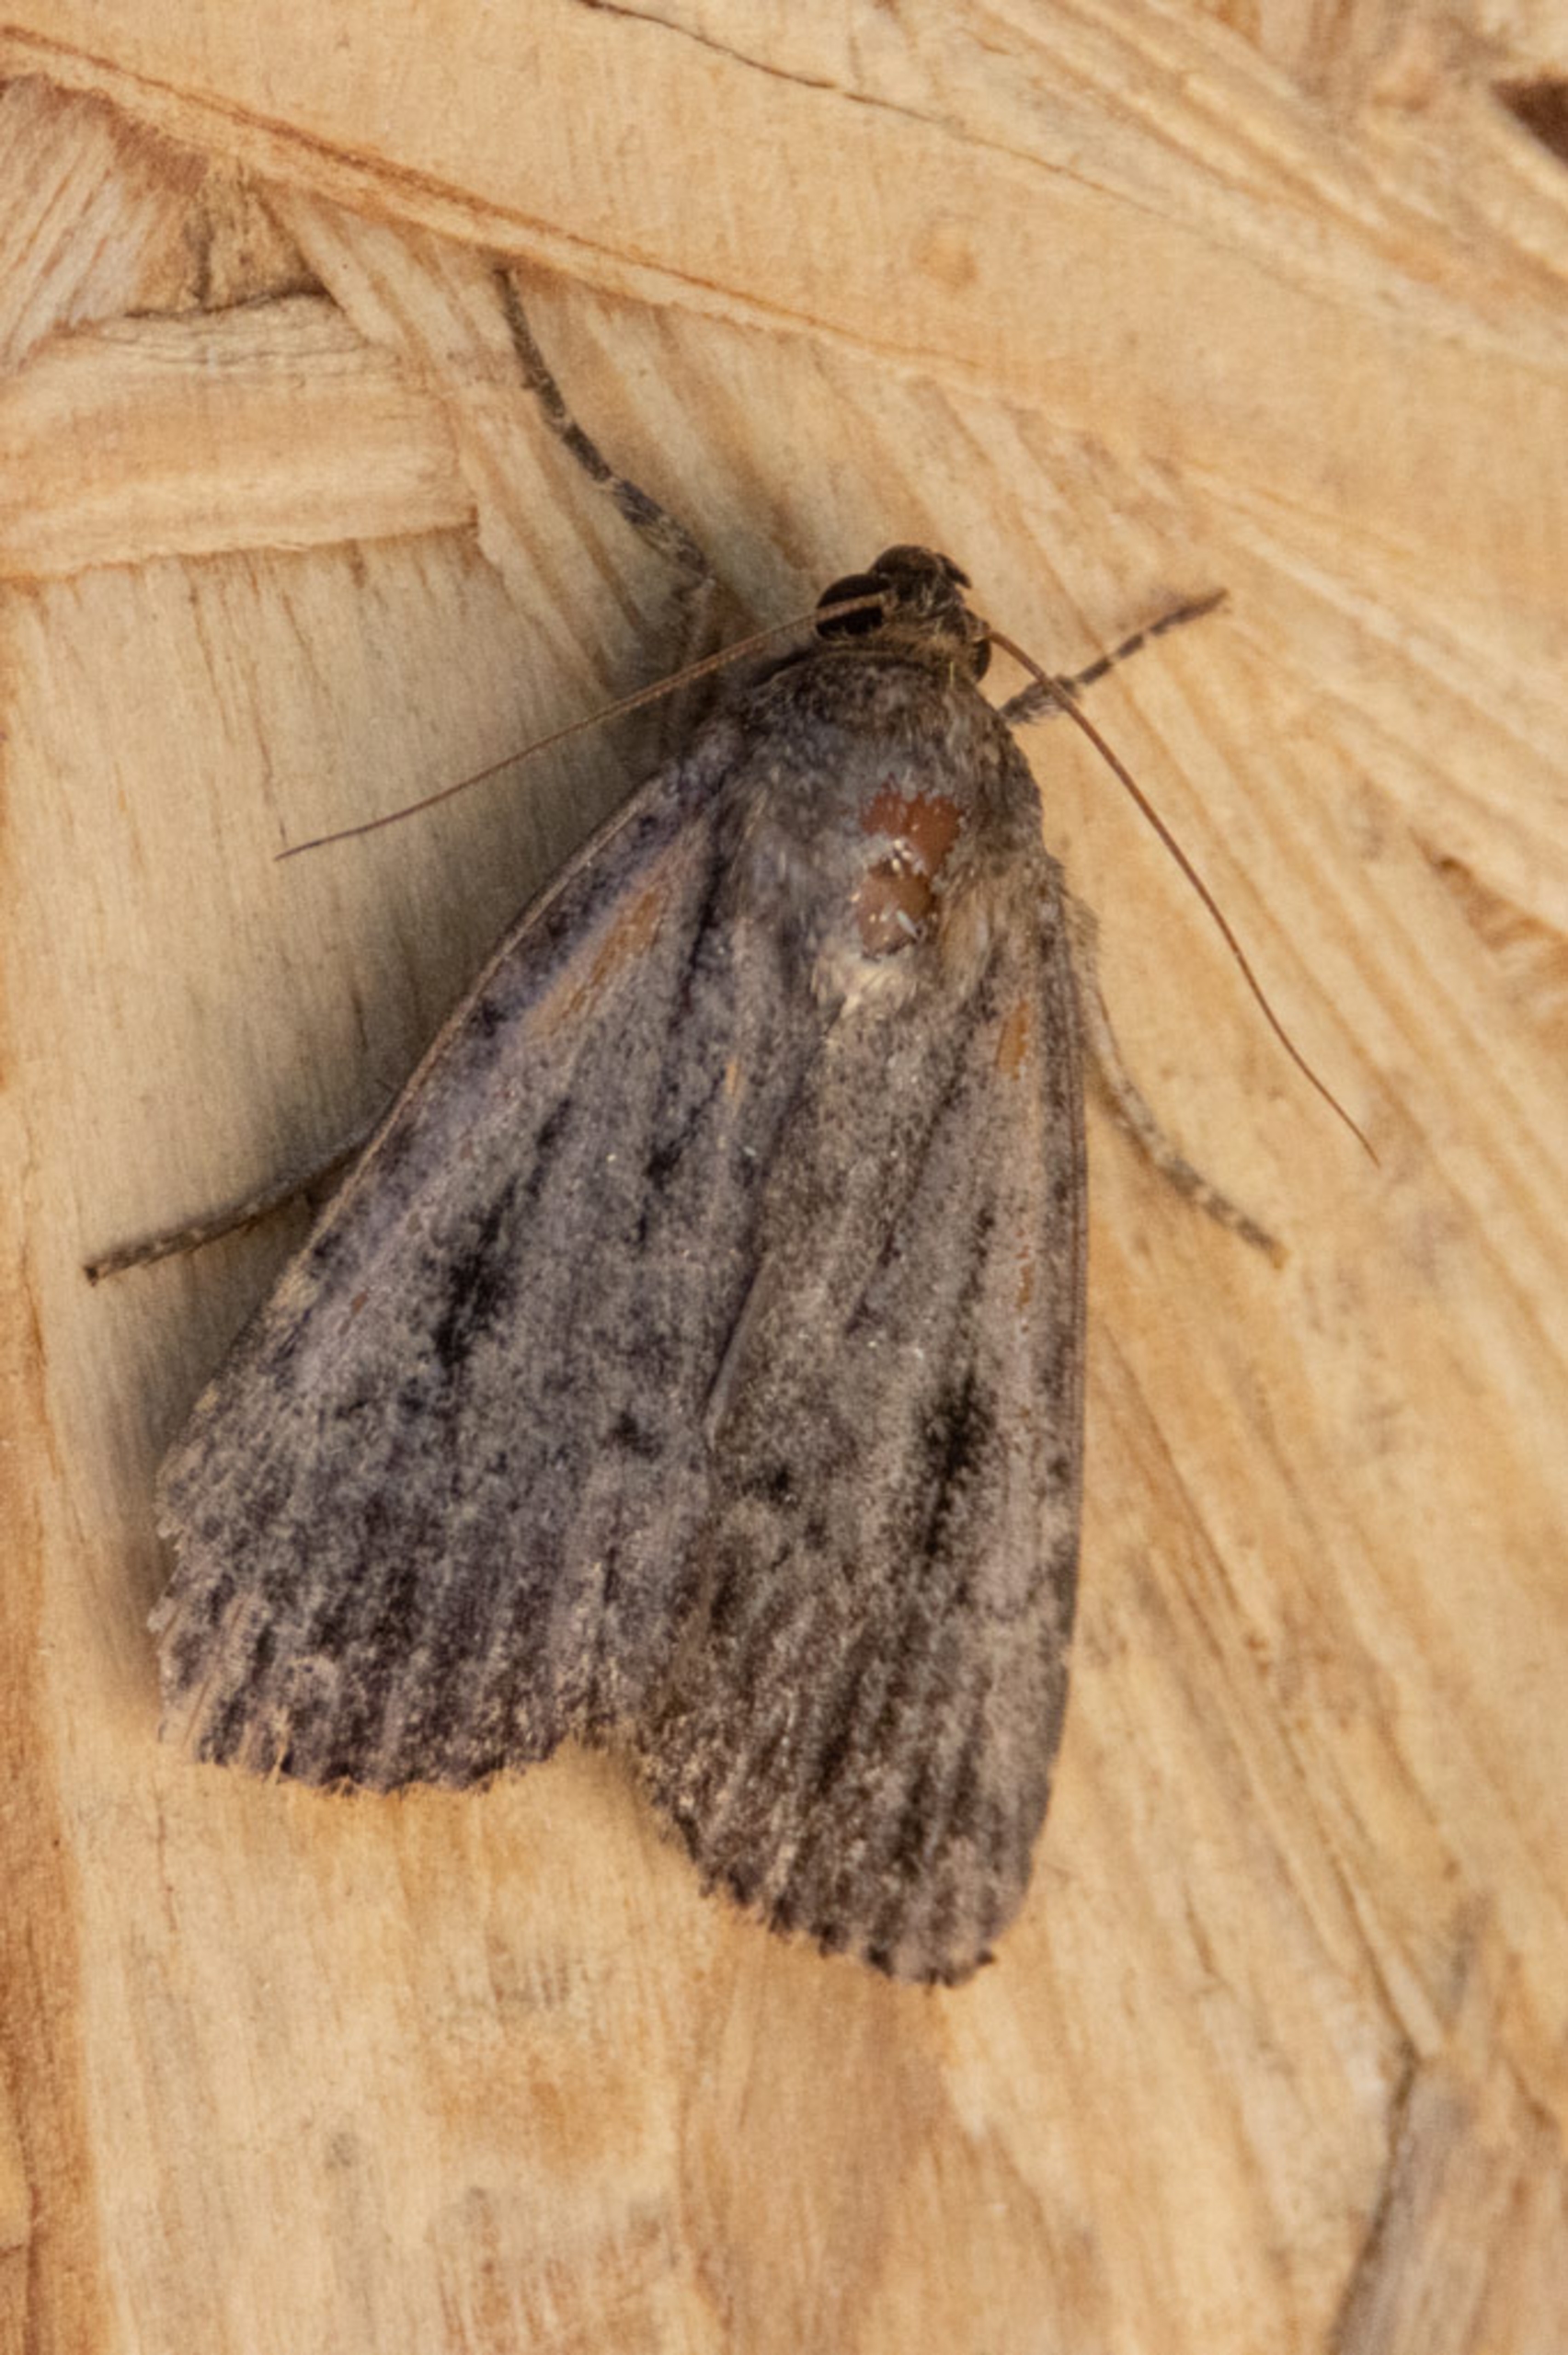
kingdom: Animalia
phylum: Arthropoda
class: Insecta
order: Lepidoptera
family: Noctuidae
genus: Amphipyra
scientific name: Amphipyra pyramidea
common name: Pyramideugle
